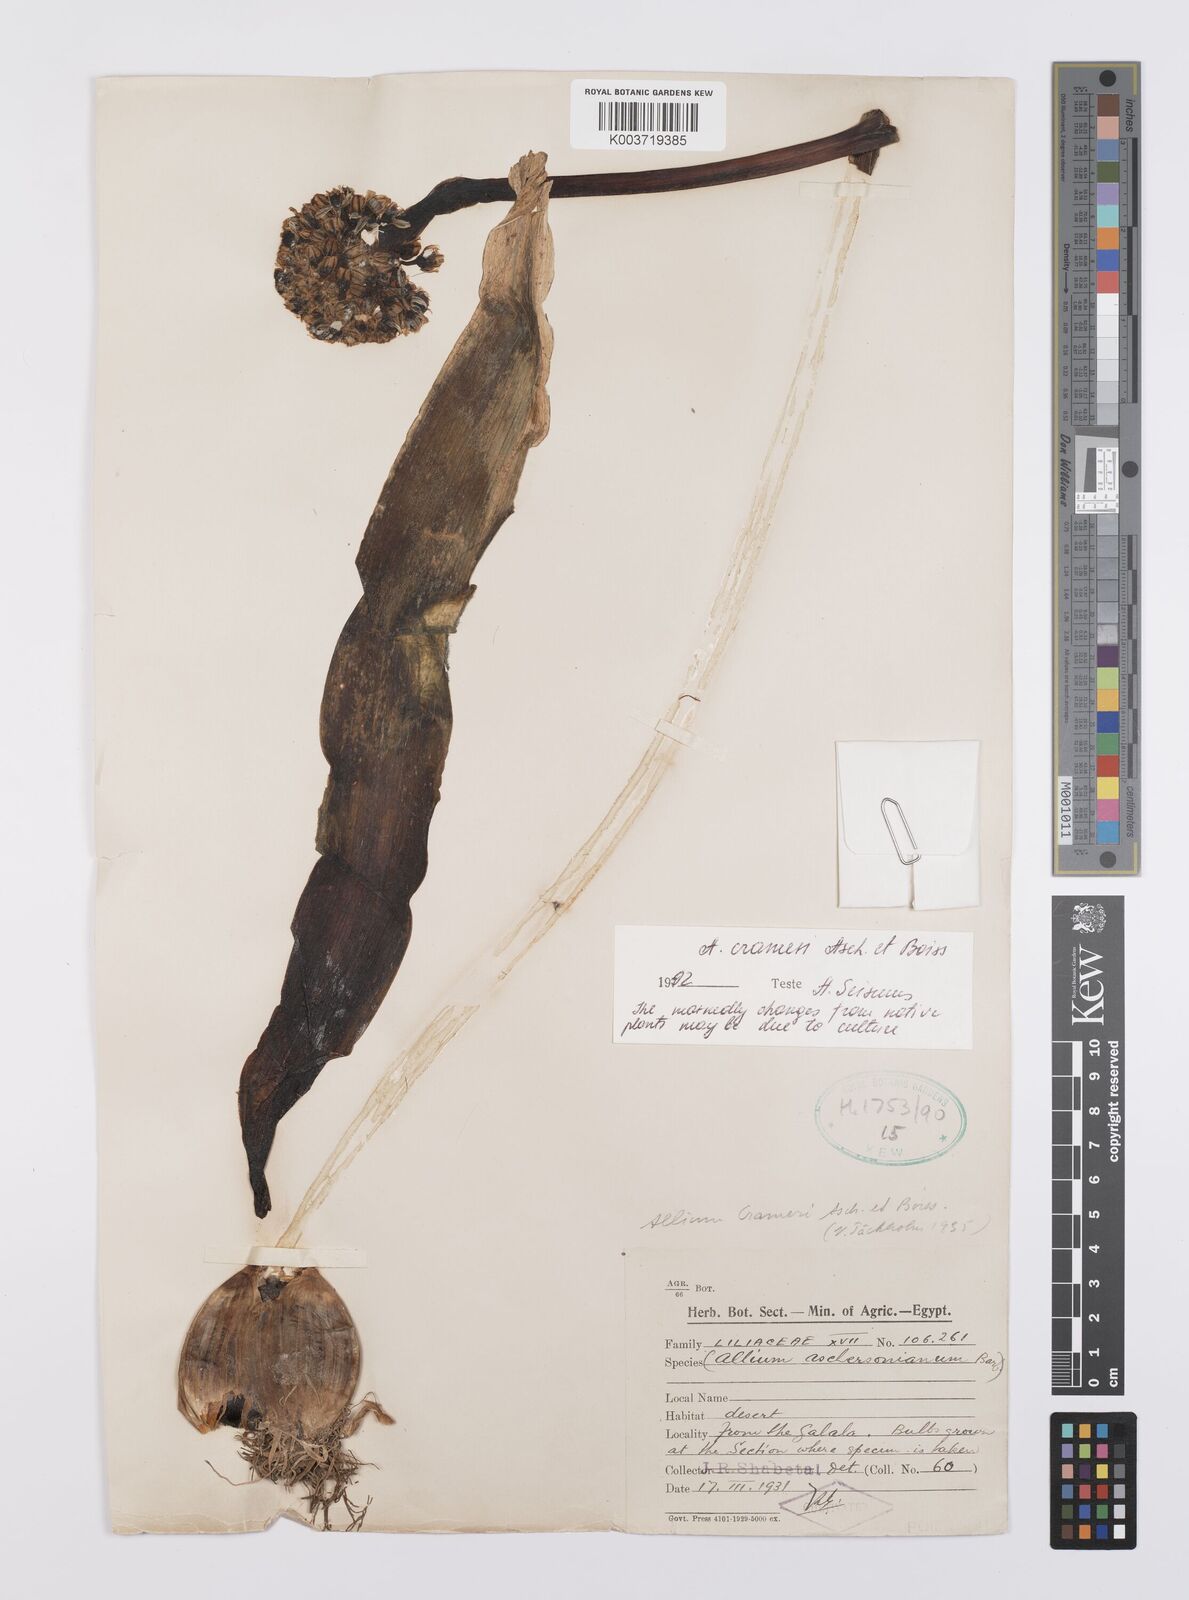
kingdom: Plantae
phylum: Tracheophyta
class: Liliopsida
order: Asparagales
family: Amaryllidaceae
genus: Allium
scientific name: Allium crameri
